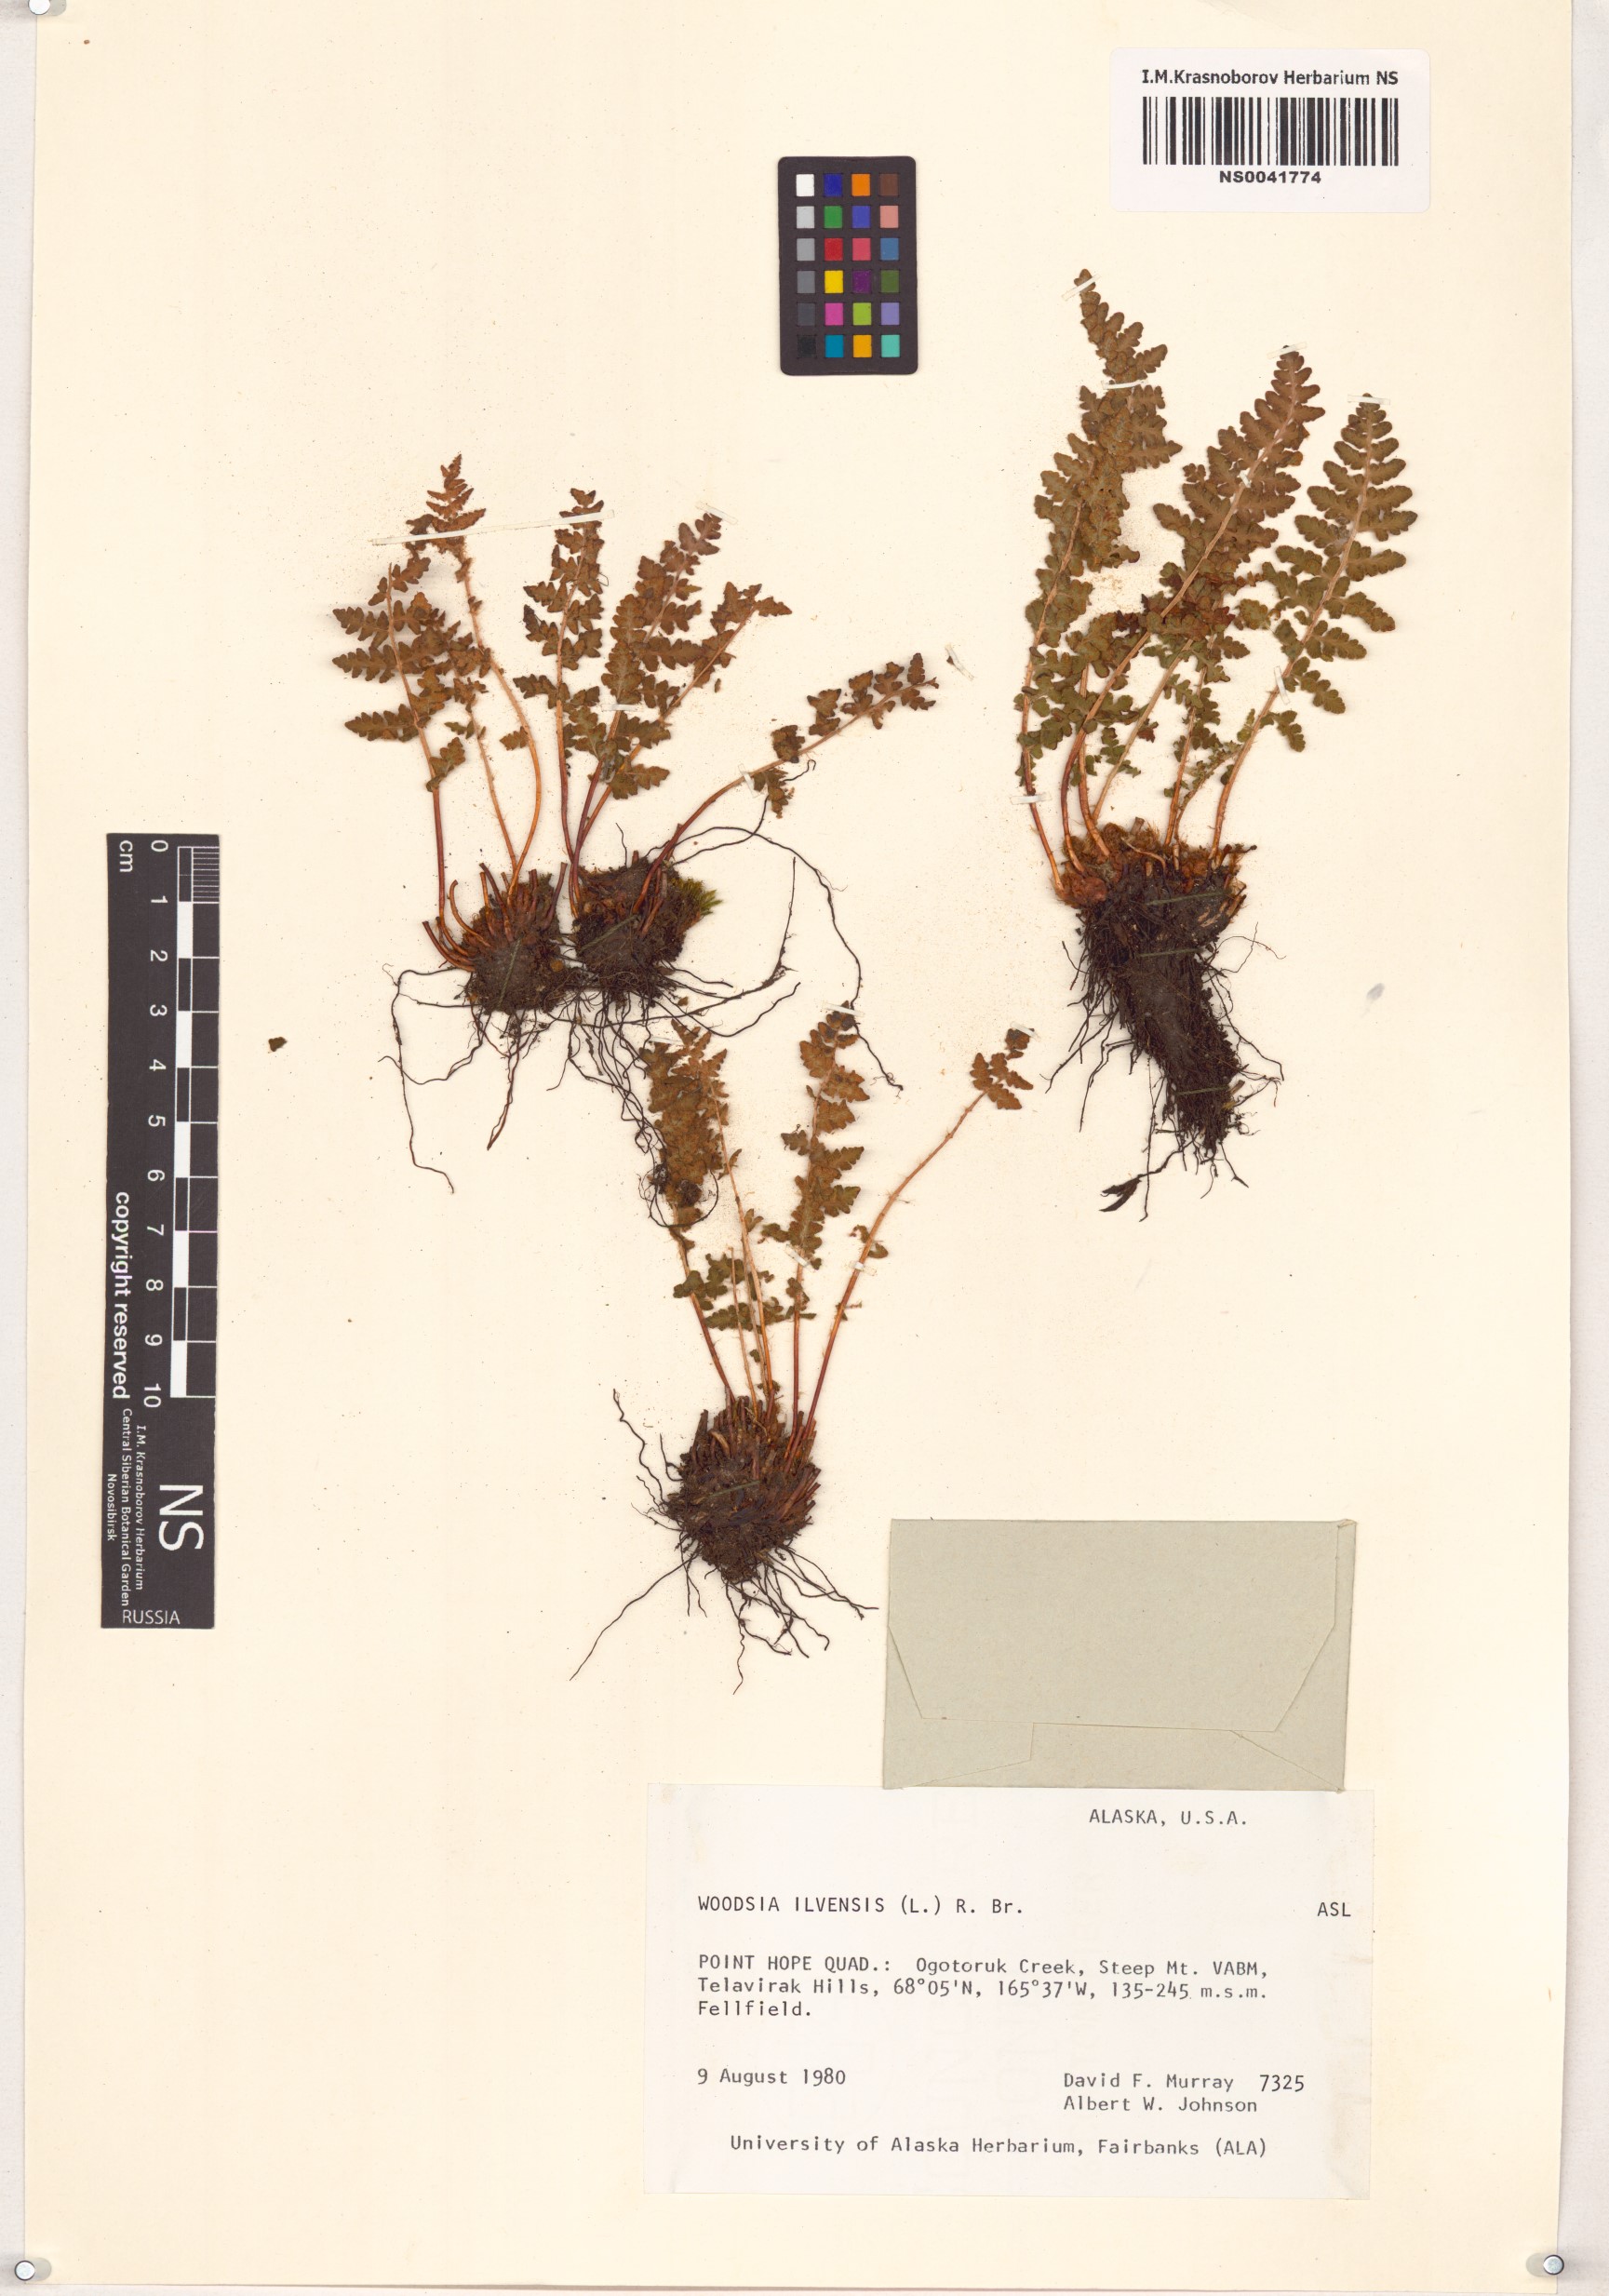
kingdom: Plantae
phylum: Tracheophyta
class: Polypodiopsida
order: Polypodiales
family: Woodsiaceae
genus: Woodsia
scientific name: Woodsia ilvensis
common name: Fragrant woodsia
